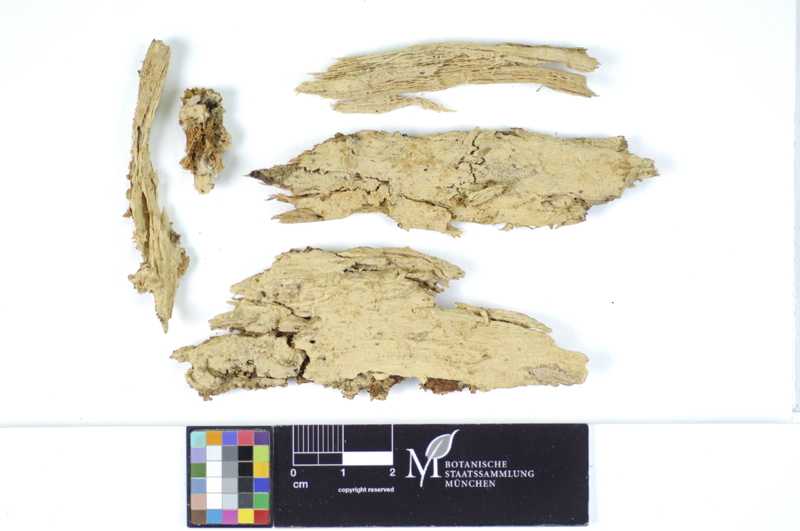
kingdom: Fungi
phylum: Basidiomycota
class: Agaricomycetes
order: Hymenochaetales
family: Hyphodontiaceae
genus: Hyphodontia
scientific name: Hyphodontia abieticola
